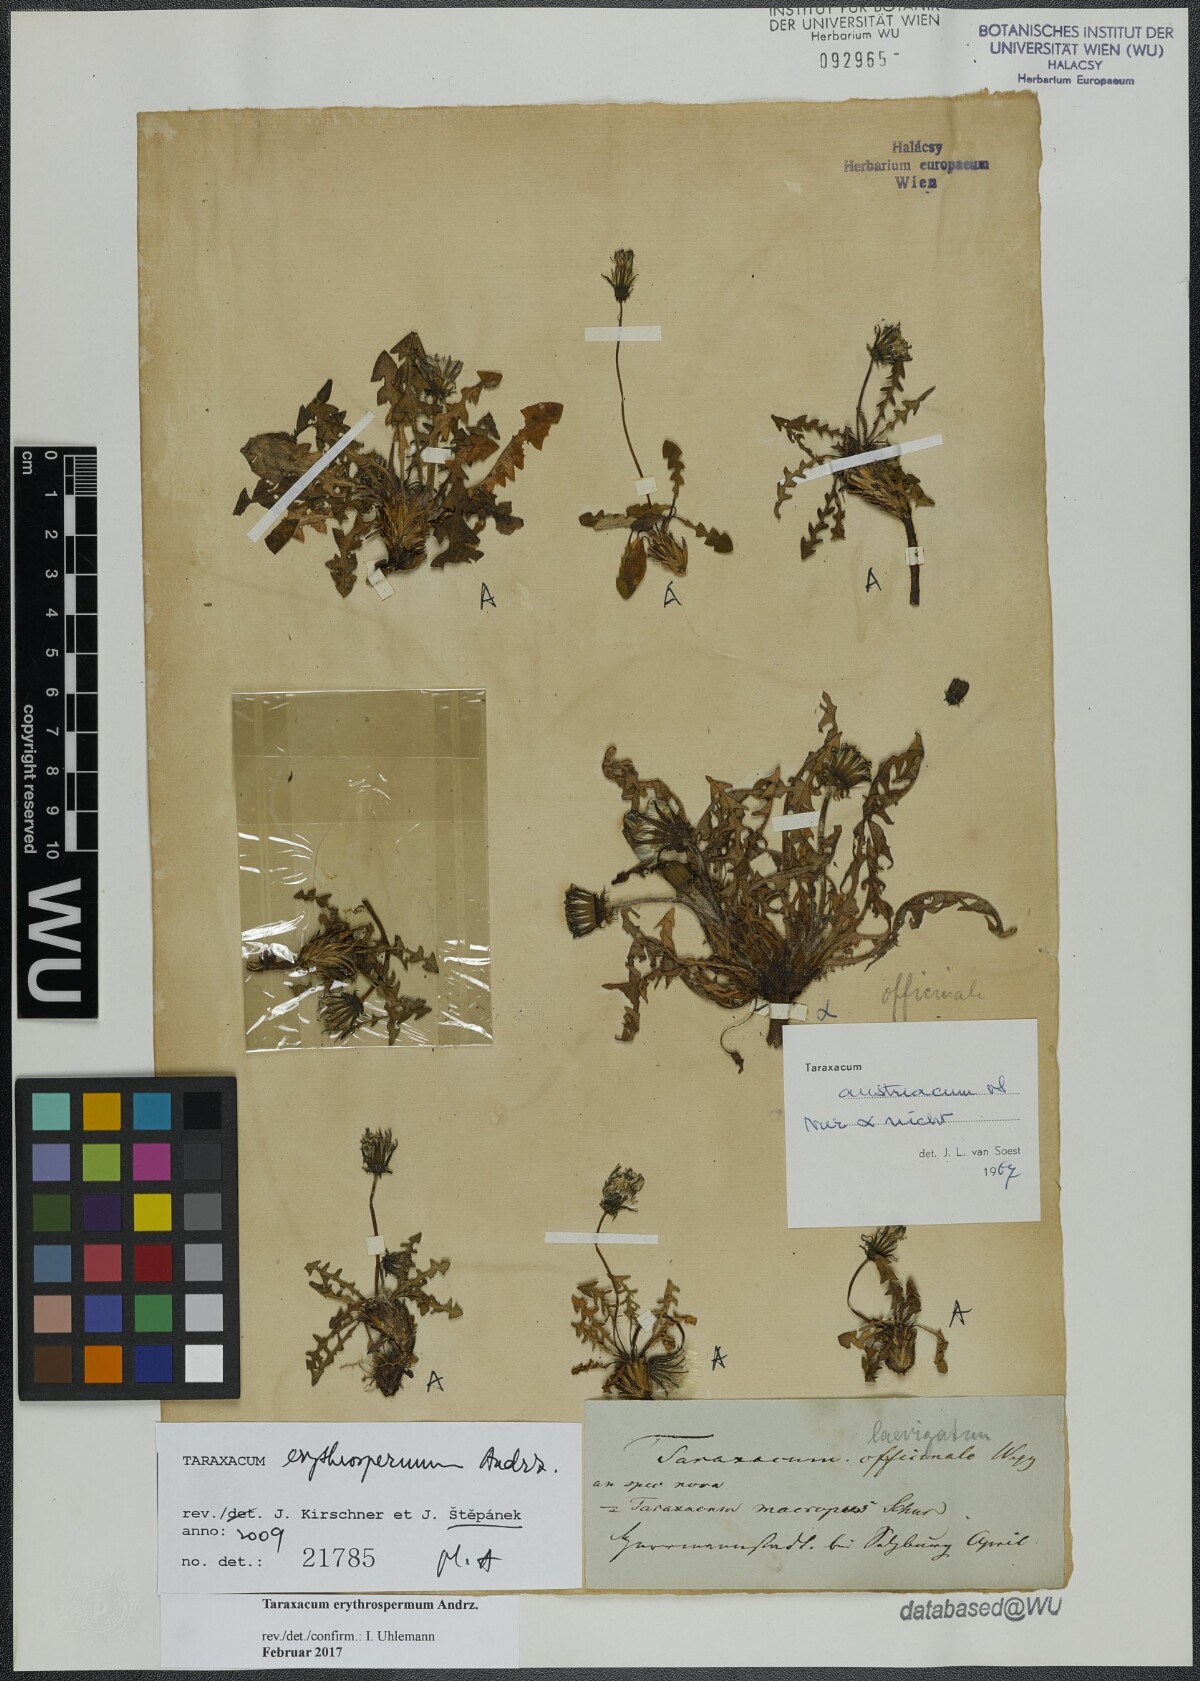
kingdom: Plantae
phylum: Tracheophyta
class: Magnoliopsida
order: Asterales
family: Asteraceae
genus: Taraxacum
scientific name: Taraxacum erythrospermum
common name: Rock dandelion
